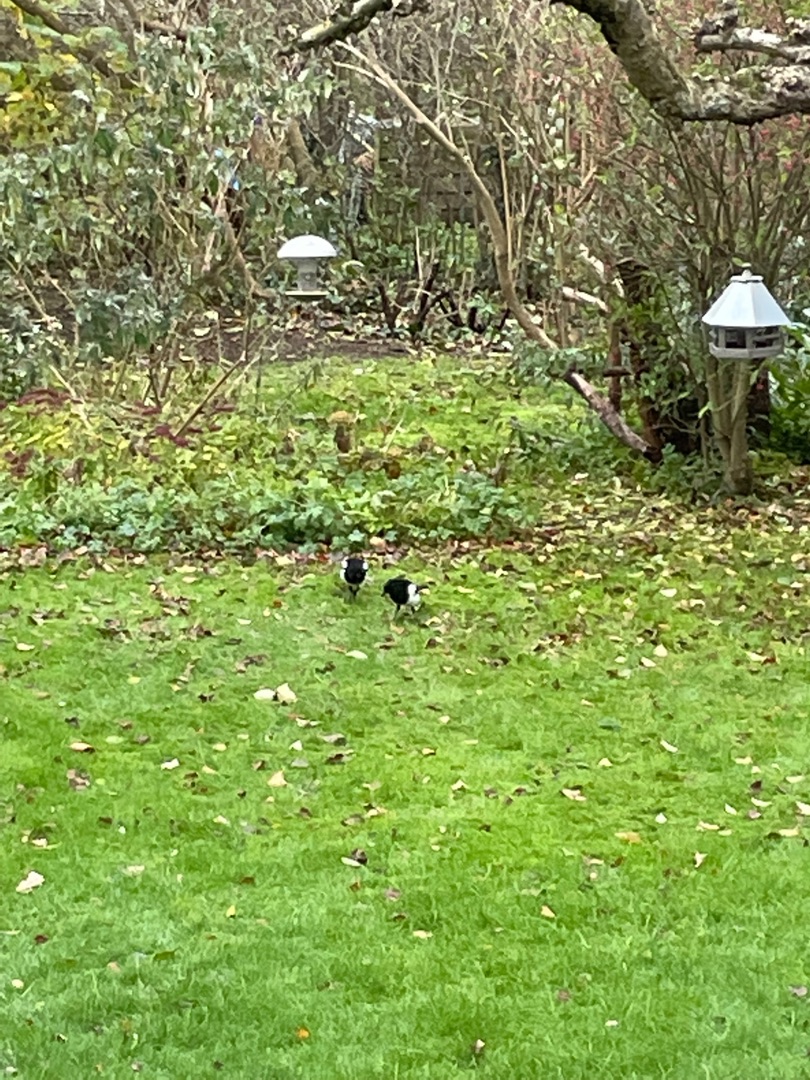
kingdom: Animalia
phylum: Chordata
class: Aves
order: Passeriformes
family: Corvidae
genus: Pica
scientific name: Pica pica
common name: Husskade
